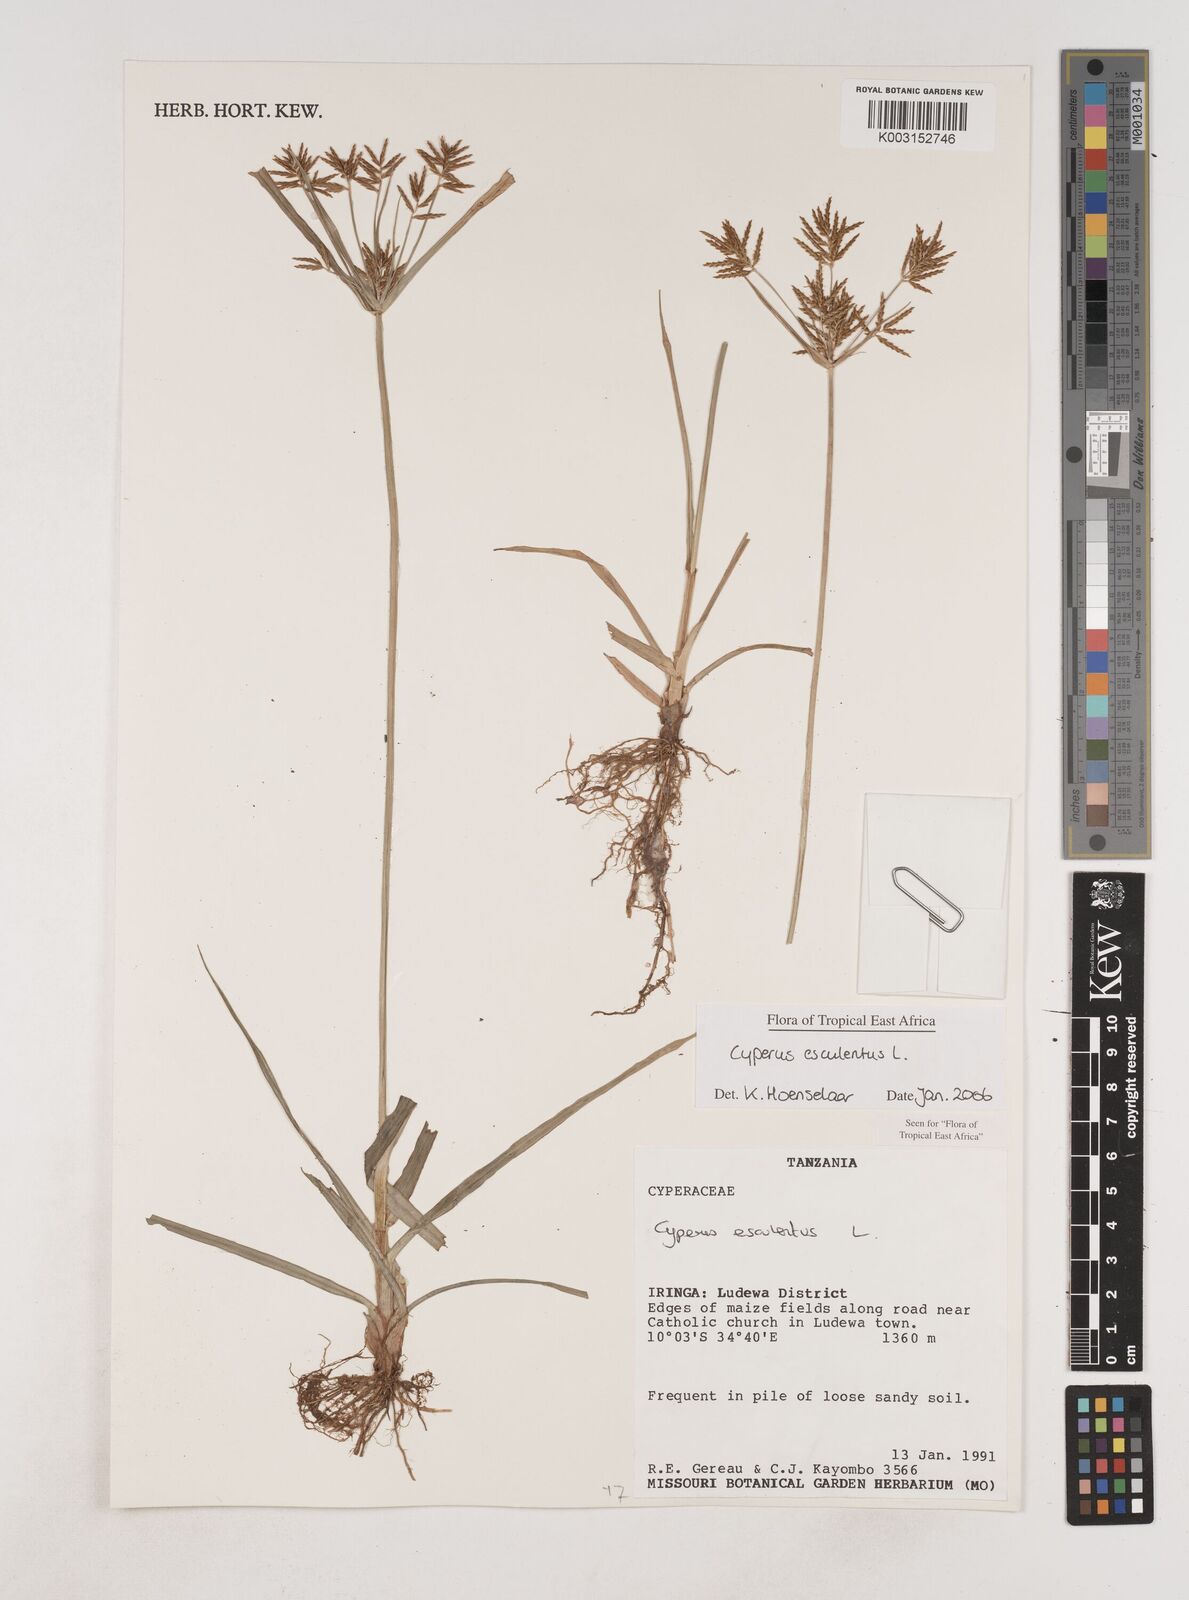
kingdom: Plantae
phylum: Tracheophyta
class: Liliopsida
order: Poales
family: Cyperaceae
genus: Cyperus
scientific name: Cyperus esculentus
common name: Yellow nutsedge
